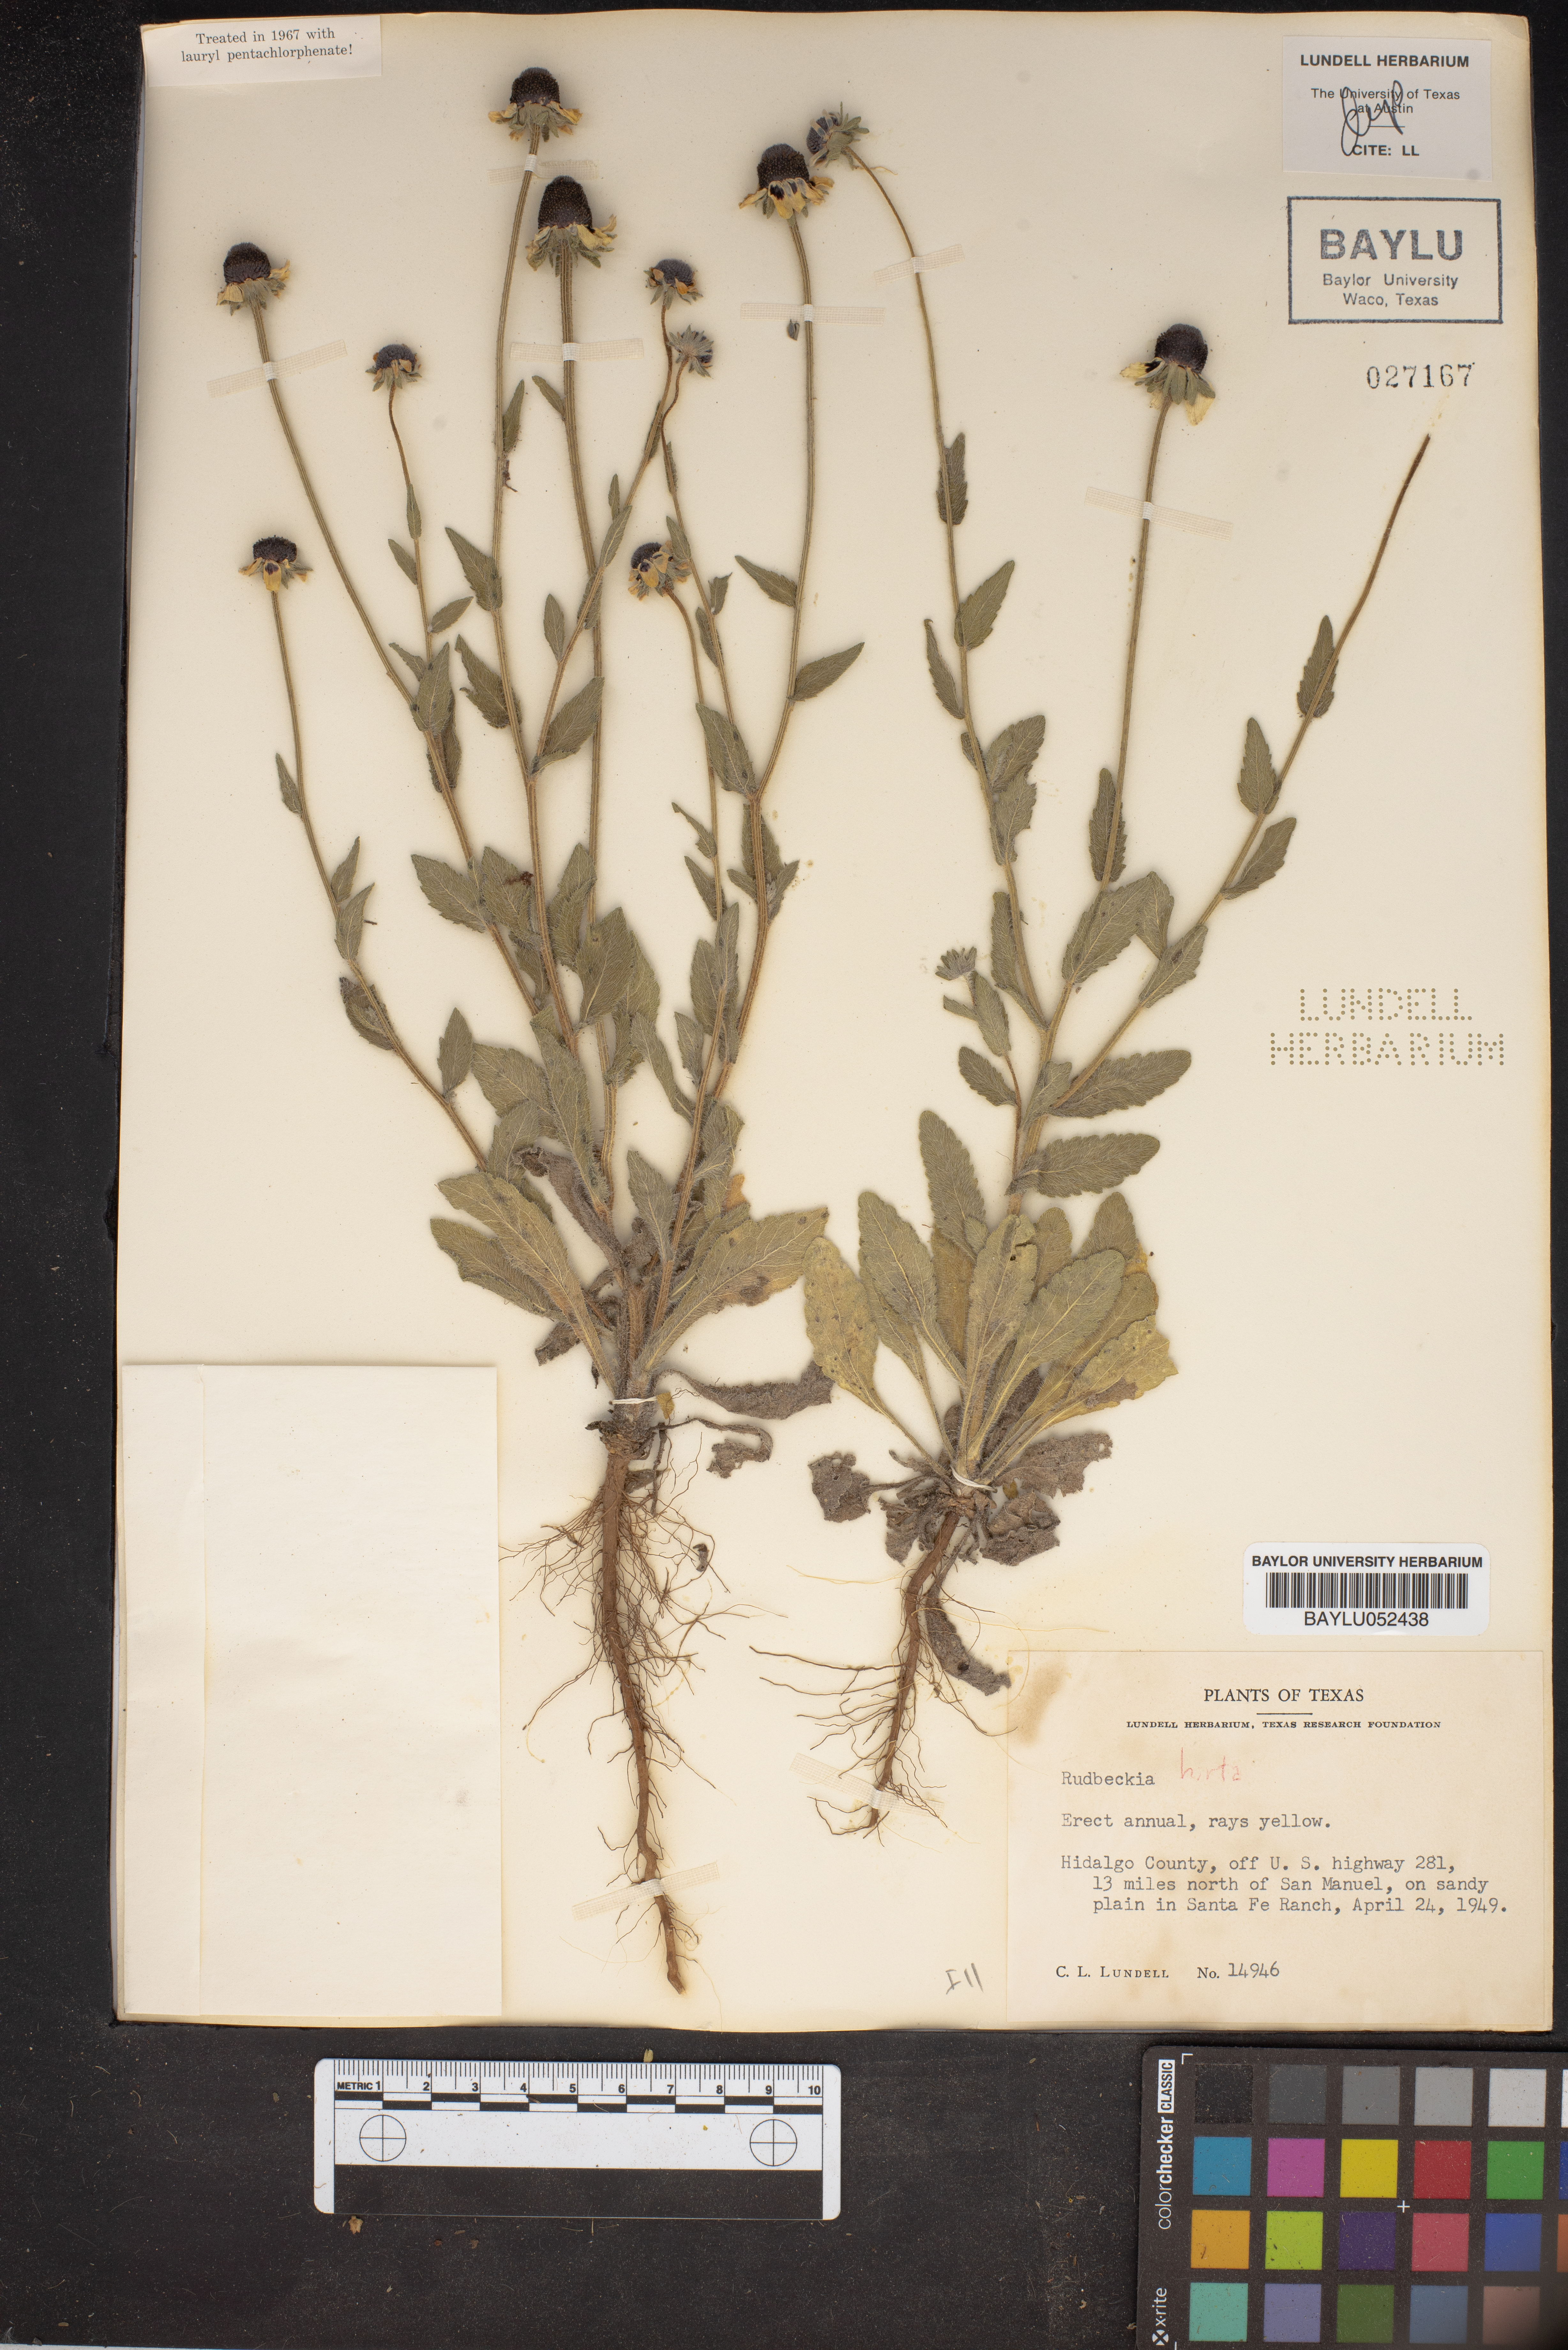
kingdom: Plantae
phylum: Tracheophyta
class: Magnoliopsida
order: Asterales
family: Asteraceae
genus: Rudbeckia
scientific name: Rudbeckia hirta
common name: Black-eyed-susan
